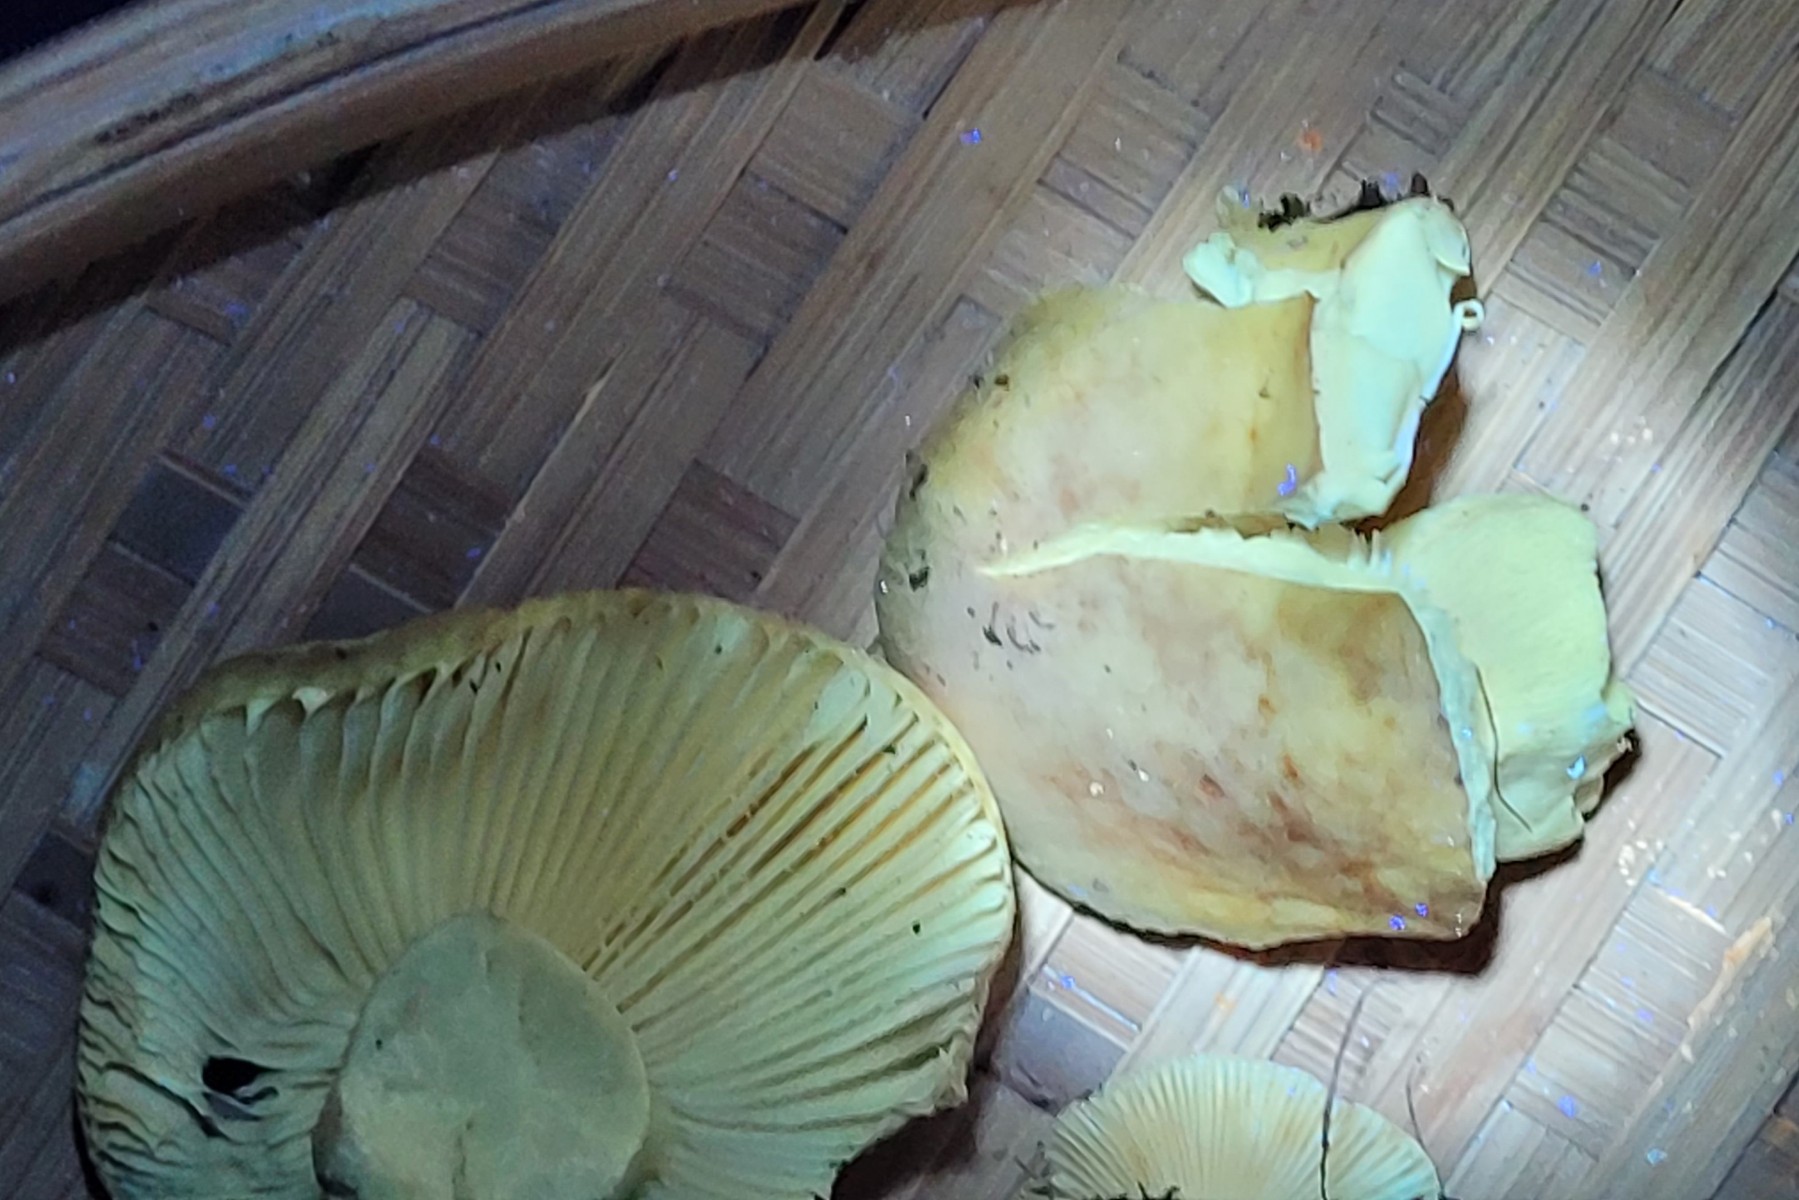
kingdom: Fungi
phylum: Basidiomycota
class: Agaricomycetes
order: Russulales
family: Russulaceae
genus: Russula
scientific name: Russula fellea
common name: galde-skørhat
